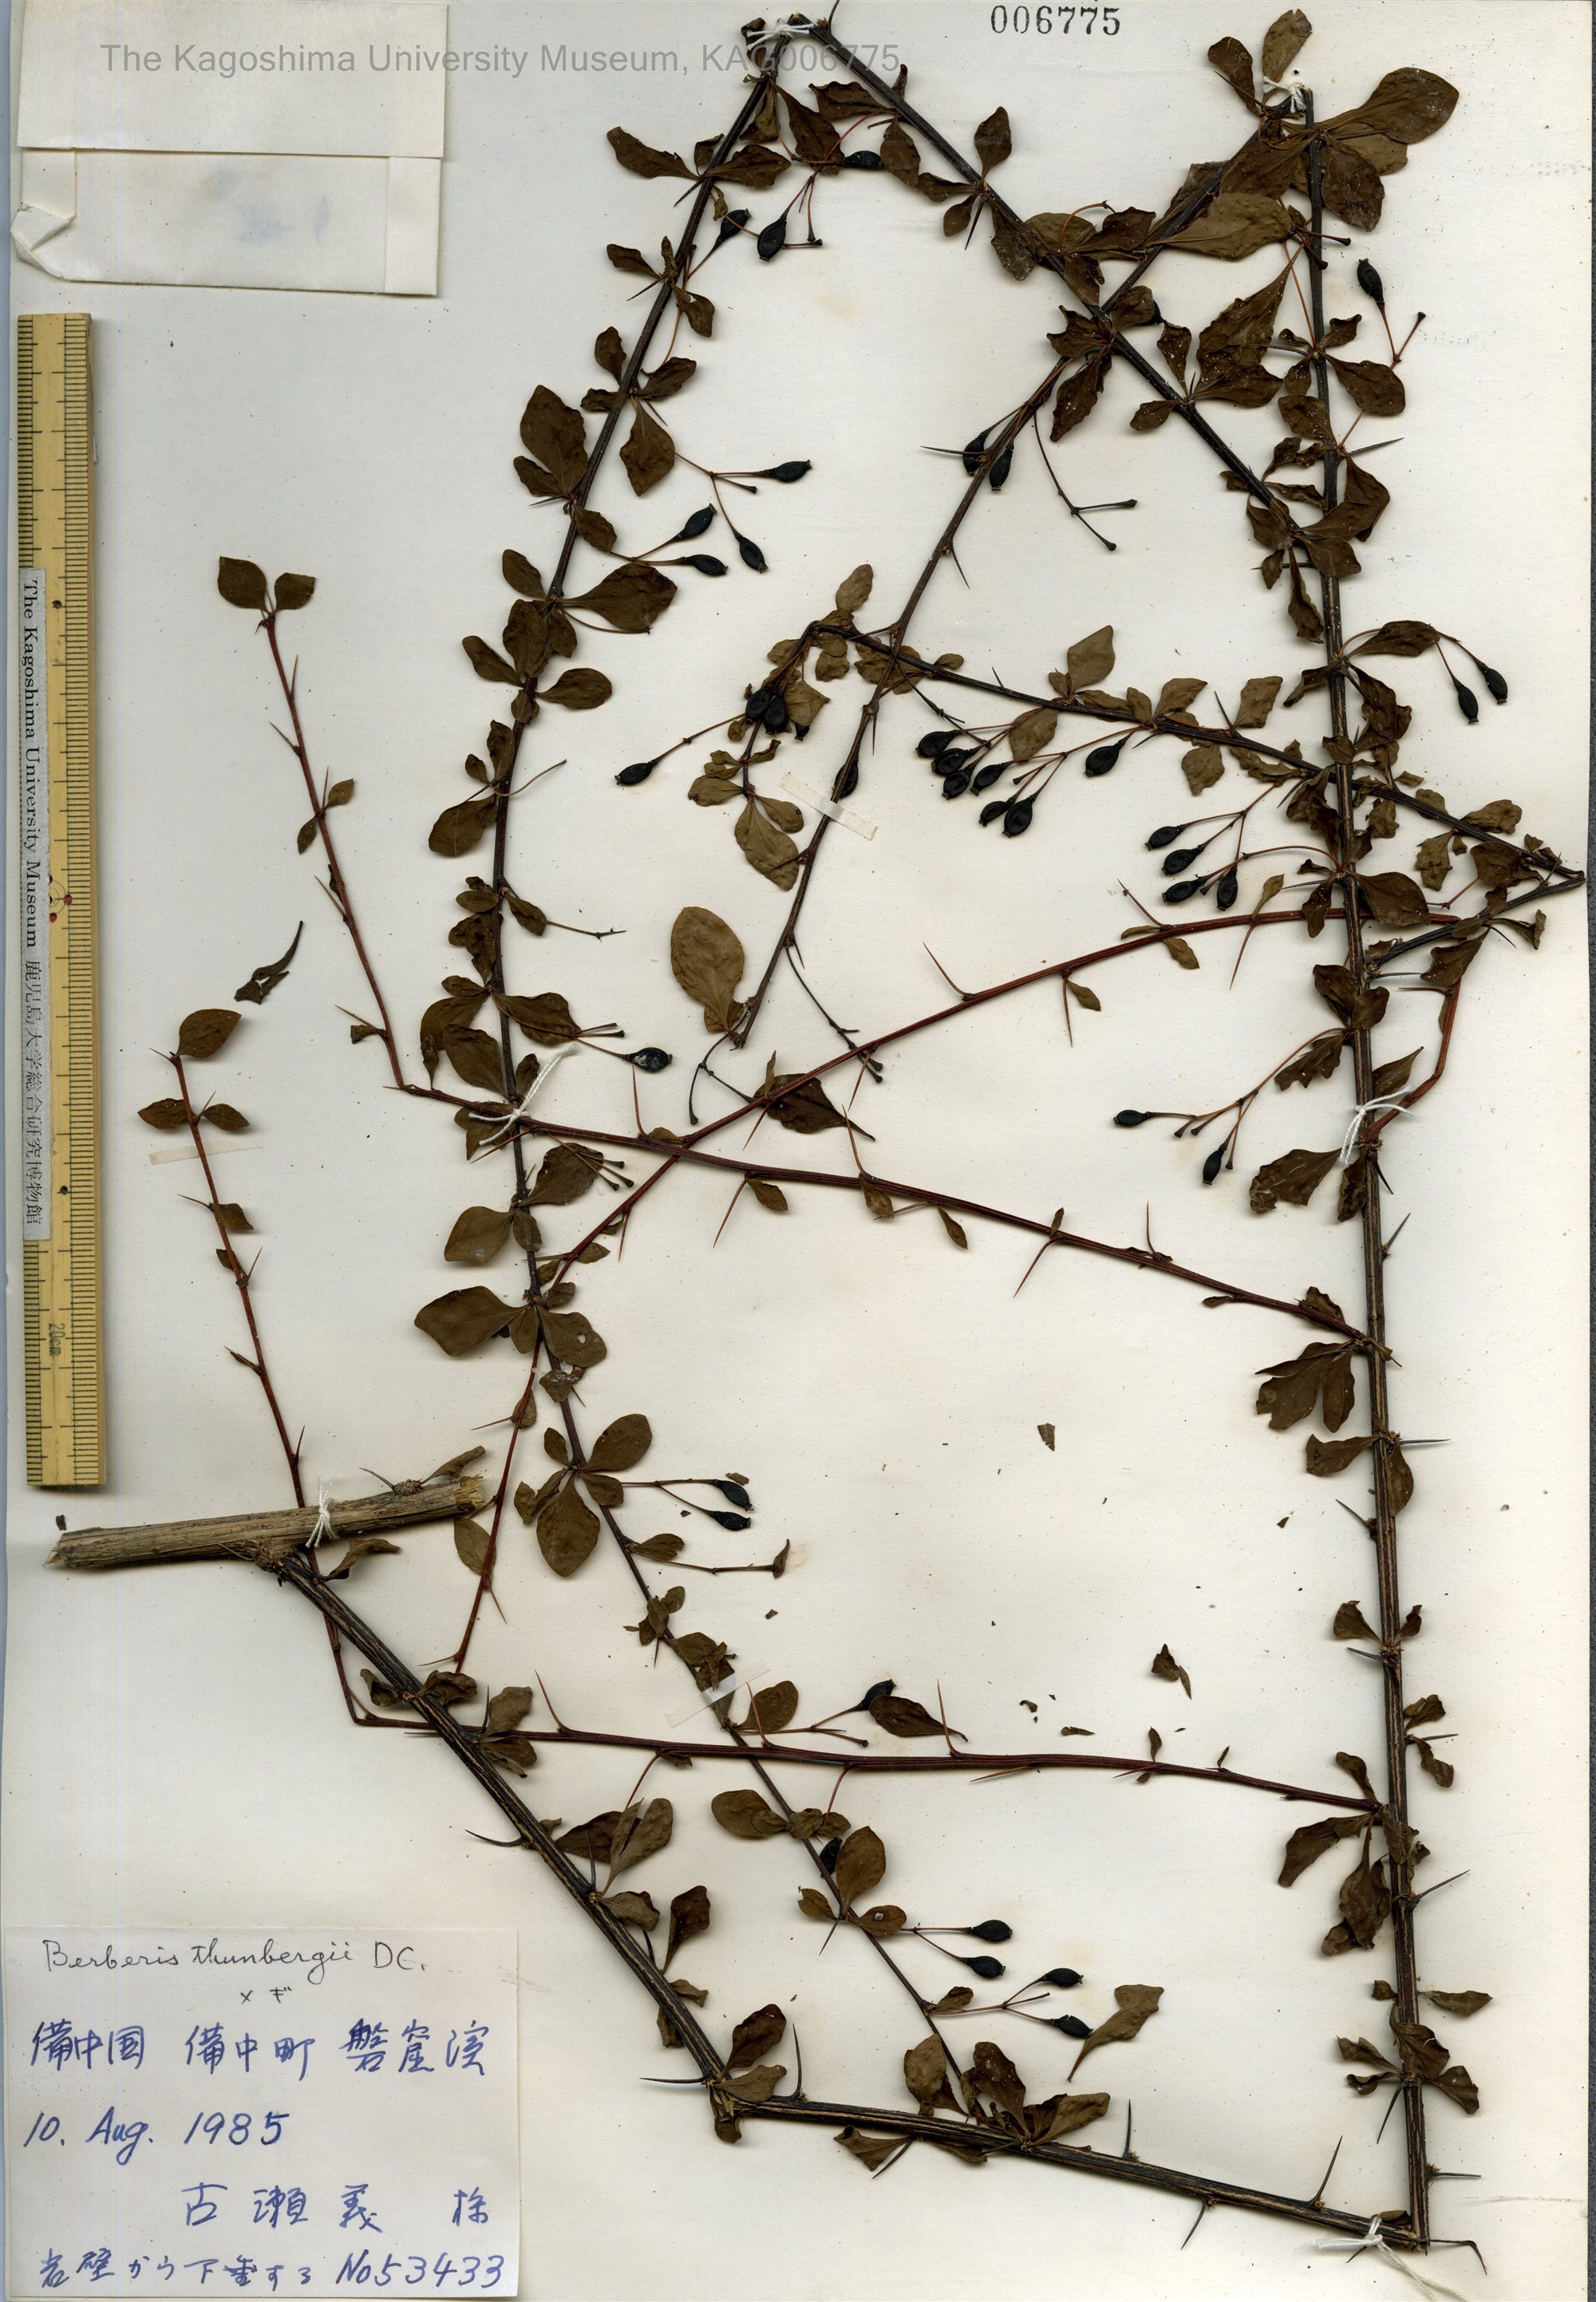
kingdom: Plantae
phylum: Tracheophyta
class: Magnoliopsida
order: Ranunculales
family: Berberidaceae
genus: Berberis
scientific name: Berberis thunbergii
